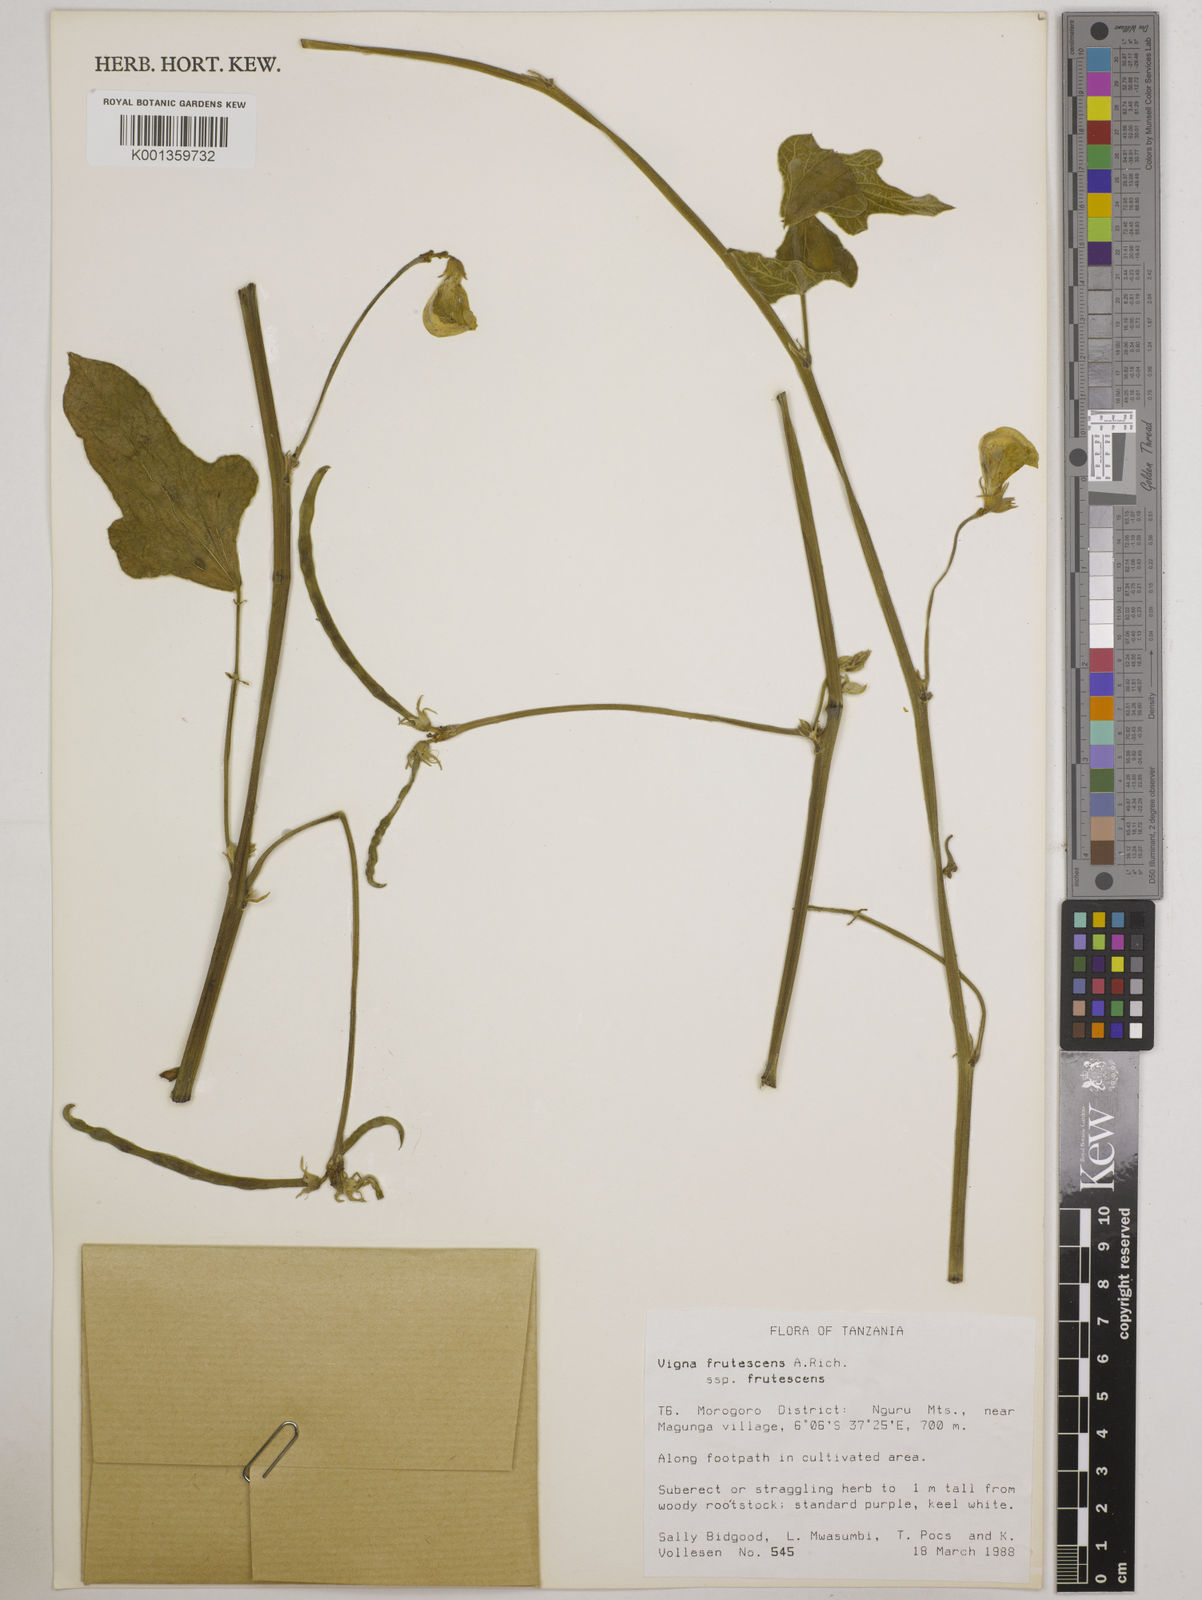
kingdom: Plantae
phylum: Tracheophyta
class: Magnoliopsida
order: Fabales
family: Fabaceae
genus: Vigna
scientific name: Vigna frutescens
